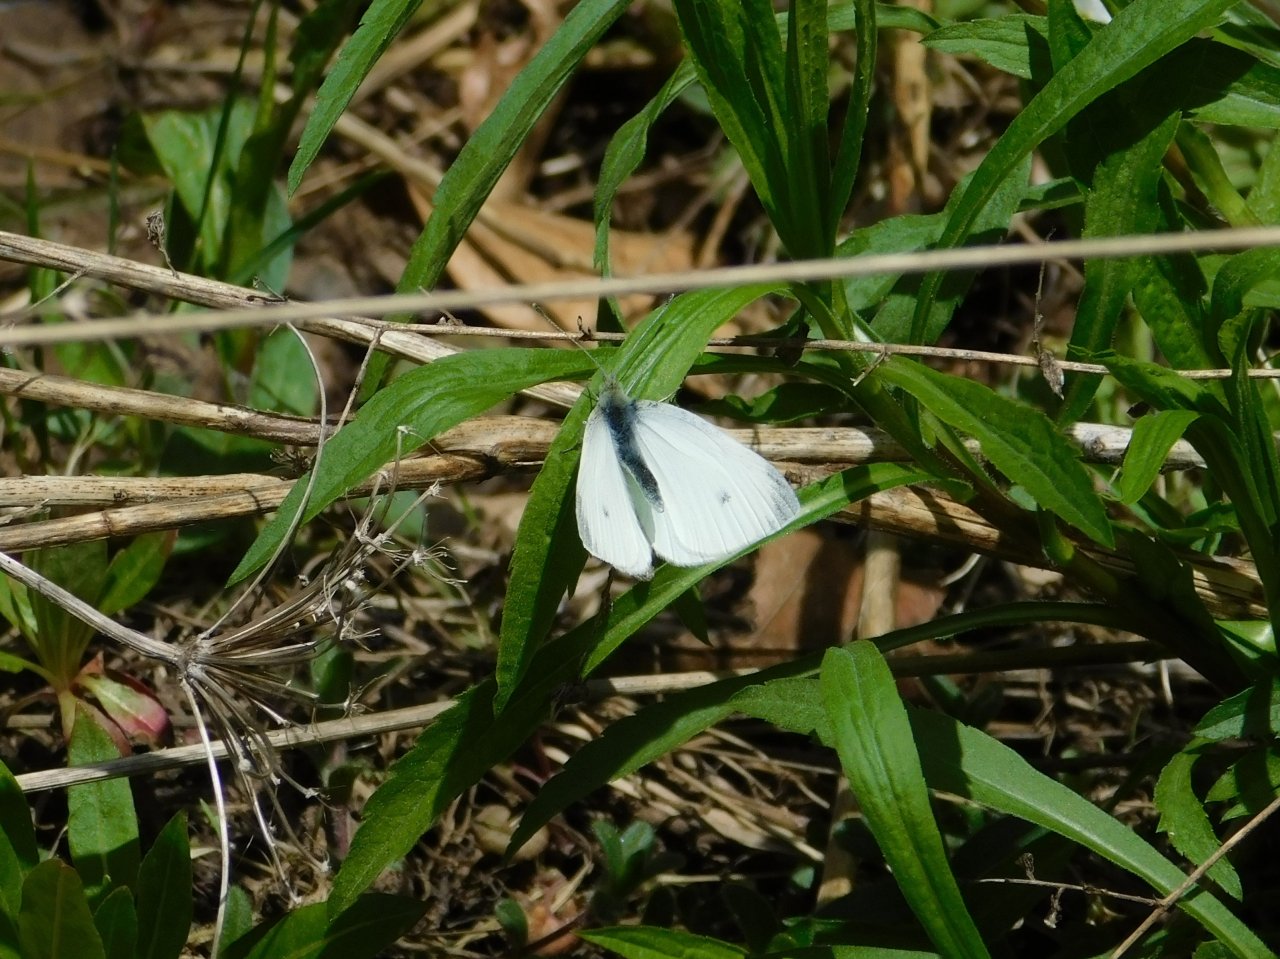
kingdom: Animalia
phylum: Arthropoda
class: Insecta
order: Lepidoptera
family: Pieridae
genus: Pieris
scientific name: Pieris rapae
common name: Cabbage White
